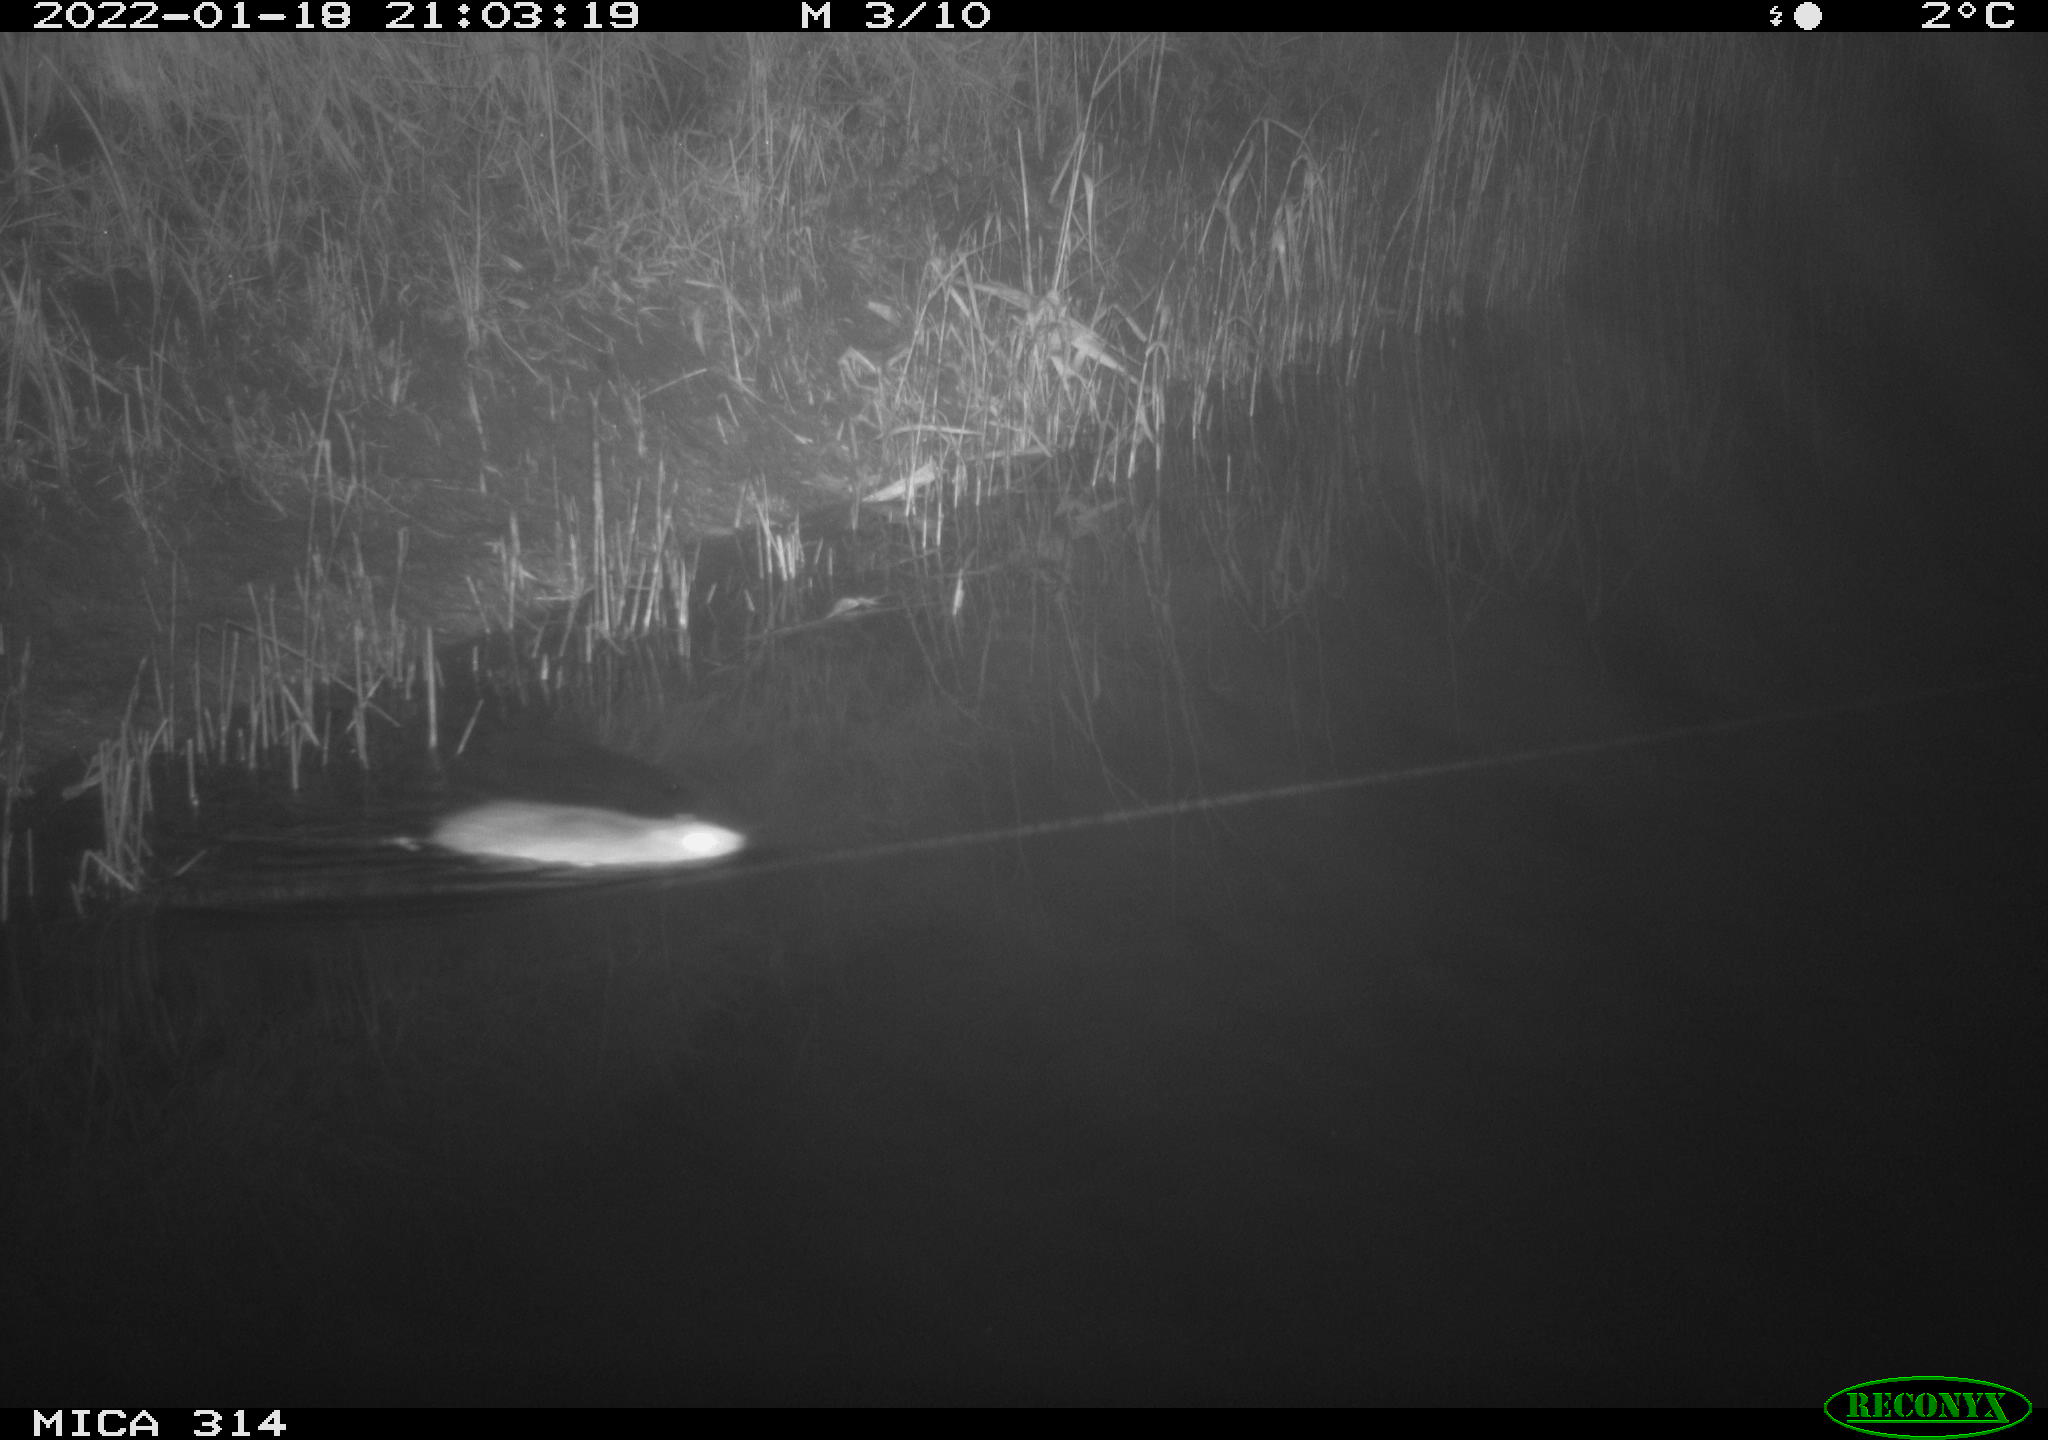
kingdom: Animalia
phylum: Chordata
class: Mammalia
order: Rodentia
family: Muridae
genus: Rattus
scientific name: Rattus norvegicus
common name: Brown rat
